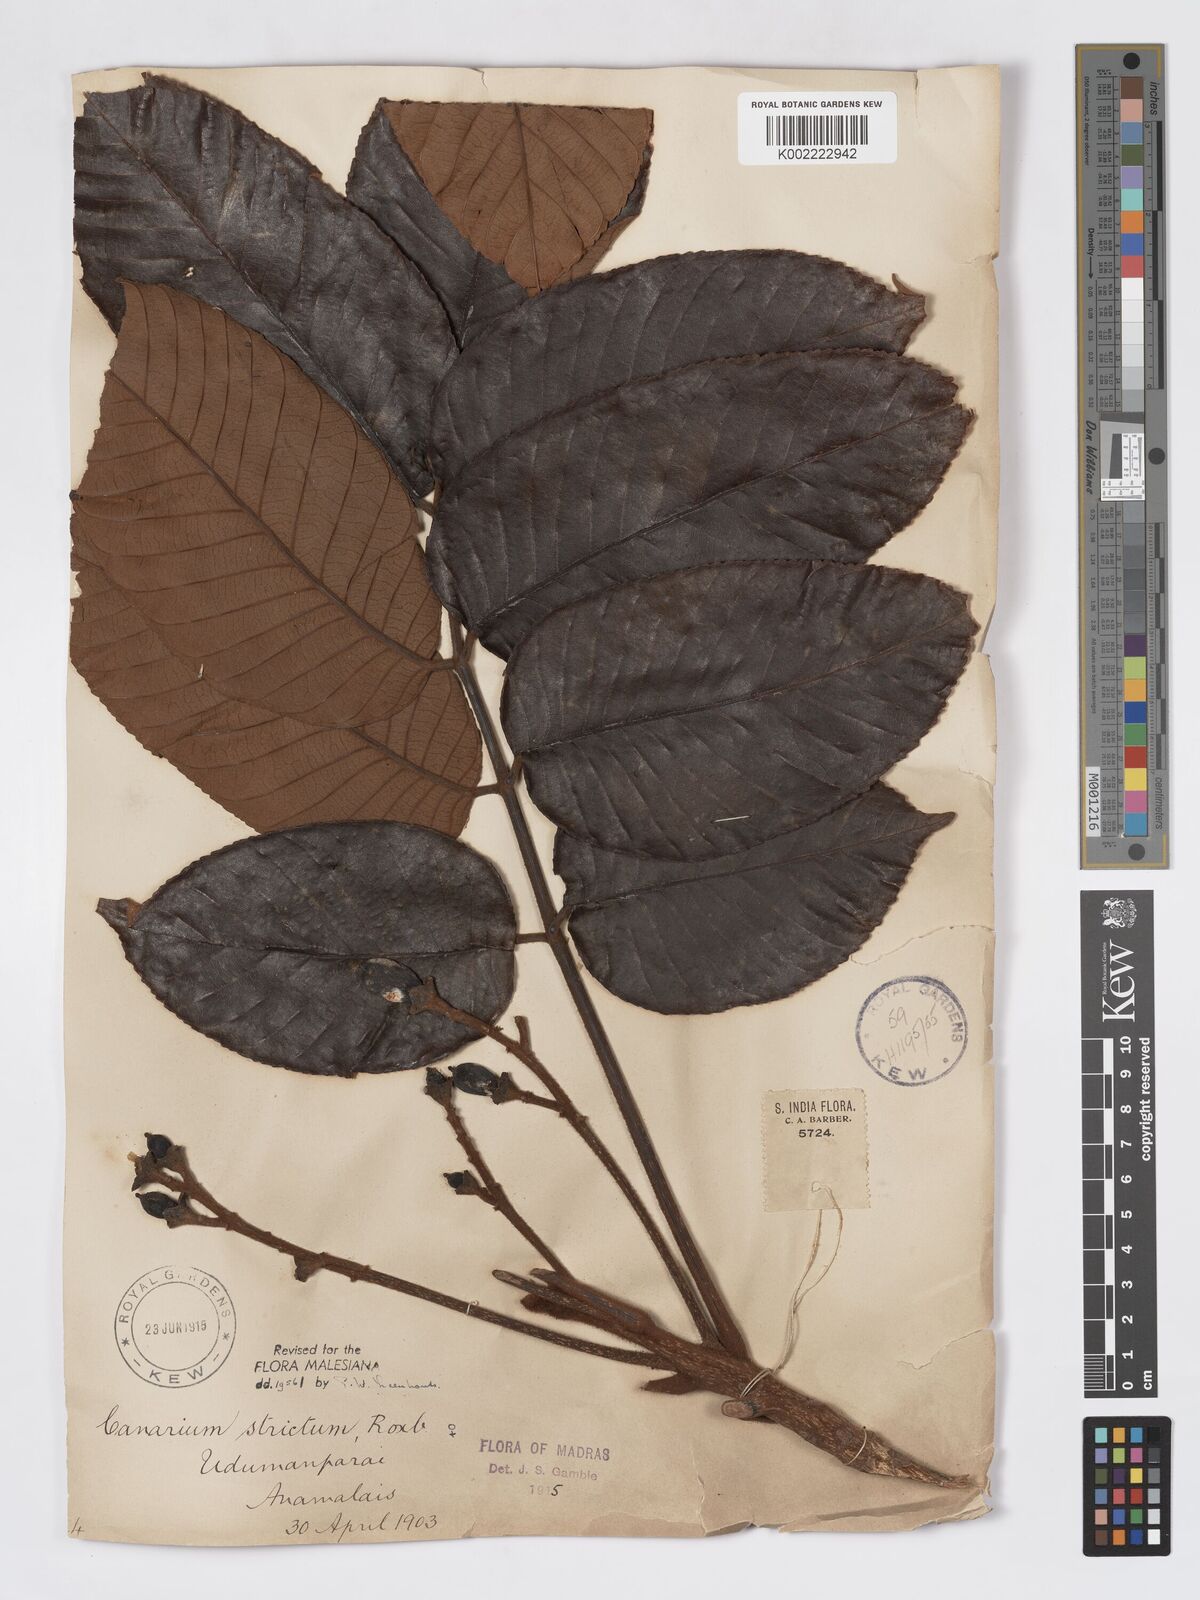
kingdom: Plantae
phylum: Tracheophyta
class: Magnoliopsida
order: Sapindales
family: Burseraceae
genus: Canarium
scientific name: Canarium strictum
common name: Indian white-mahogany
